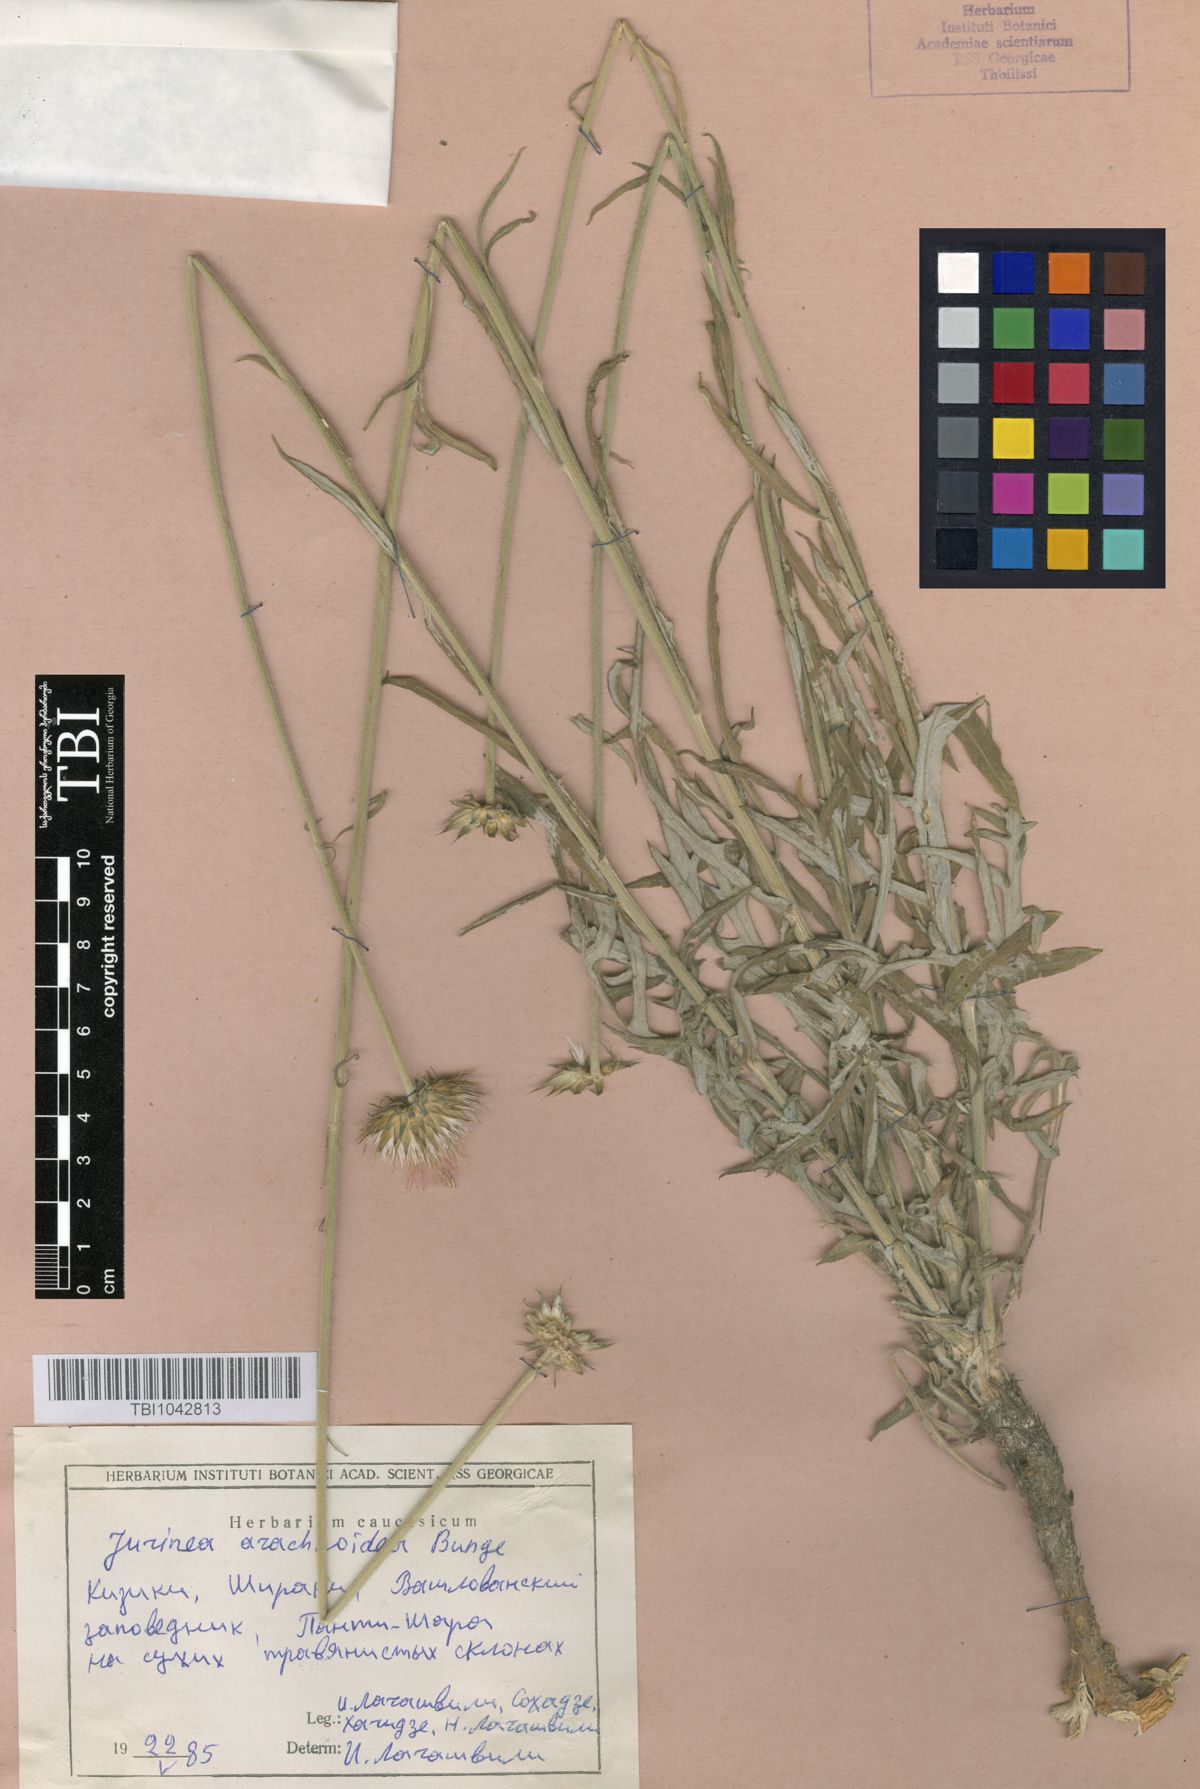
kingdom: Plantae
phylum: Tracheophyta
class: Magnoliopsida
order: Asterales
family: Asteraceae
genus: Jurinea
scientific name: Jurinea blanda
